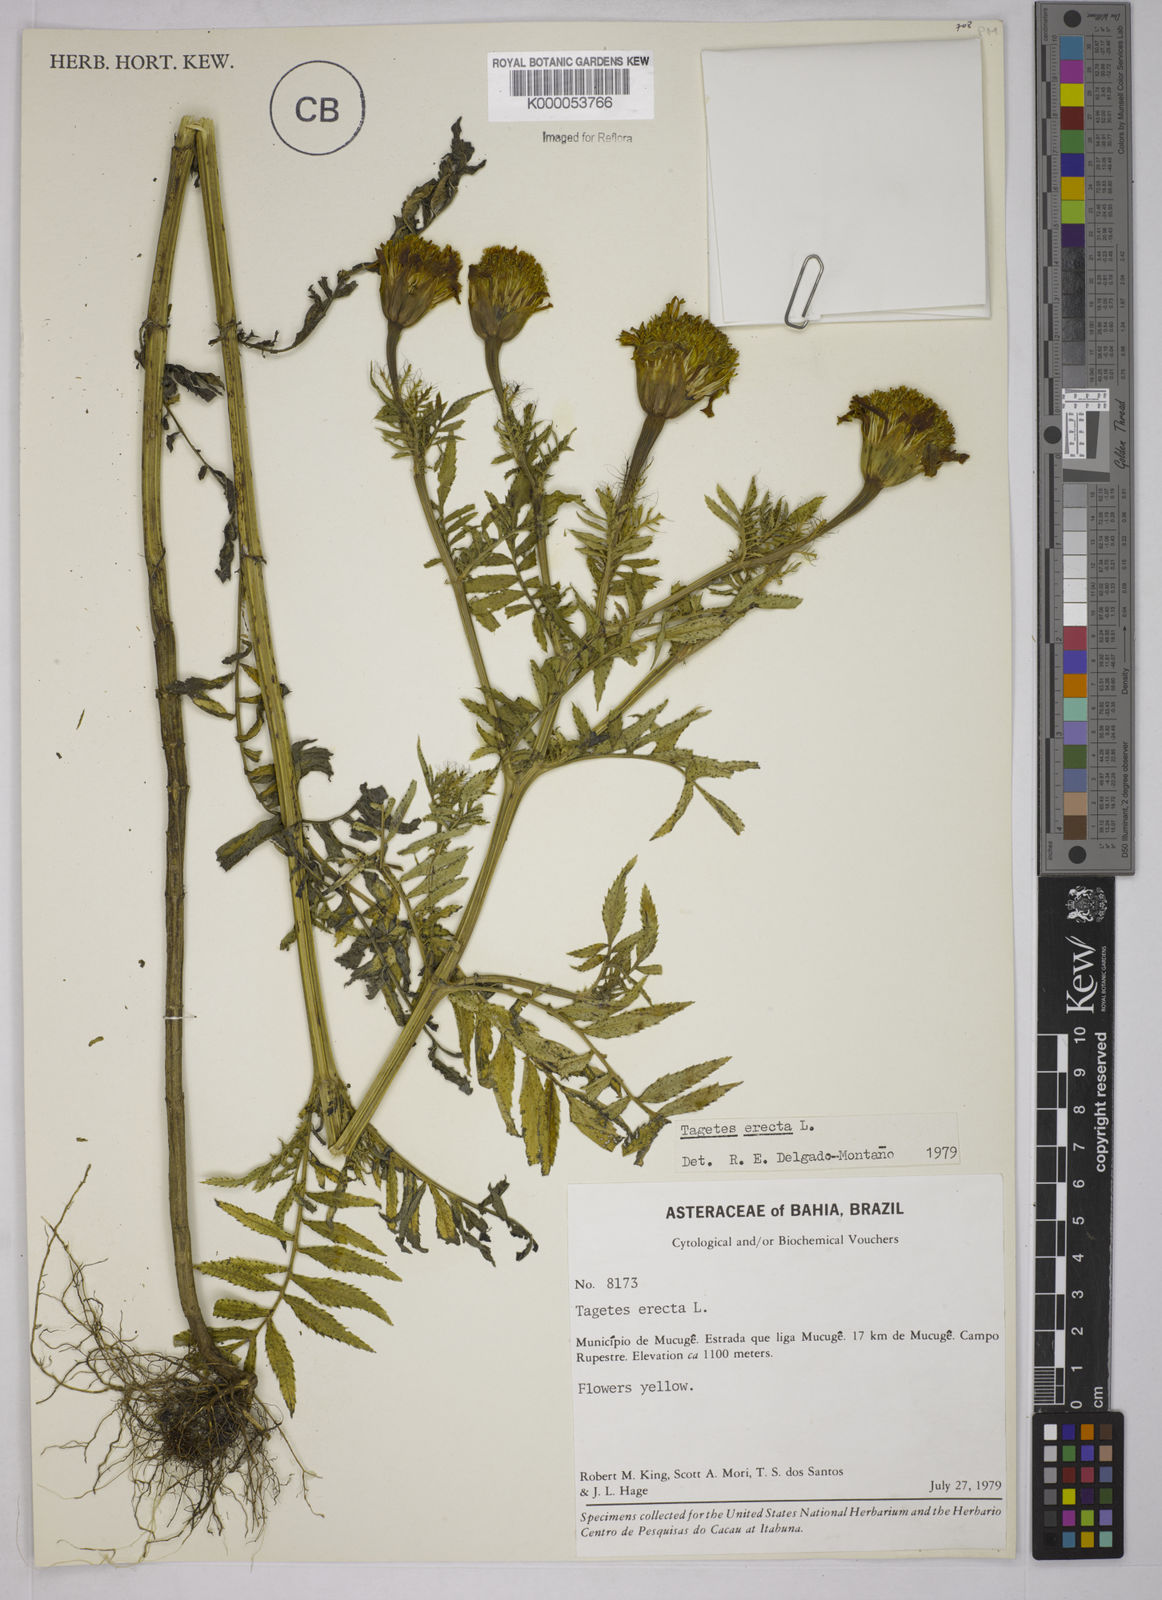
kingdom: Plantae
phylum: Tracheophyta
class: Magnoliopsida
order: Asterales
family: Asteraceae
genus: Tagetes
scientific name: Tagetes erecta
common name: African marigold
